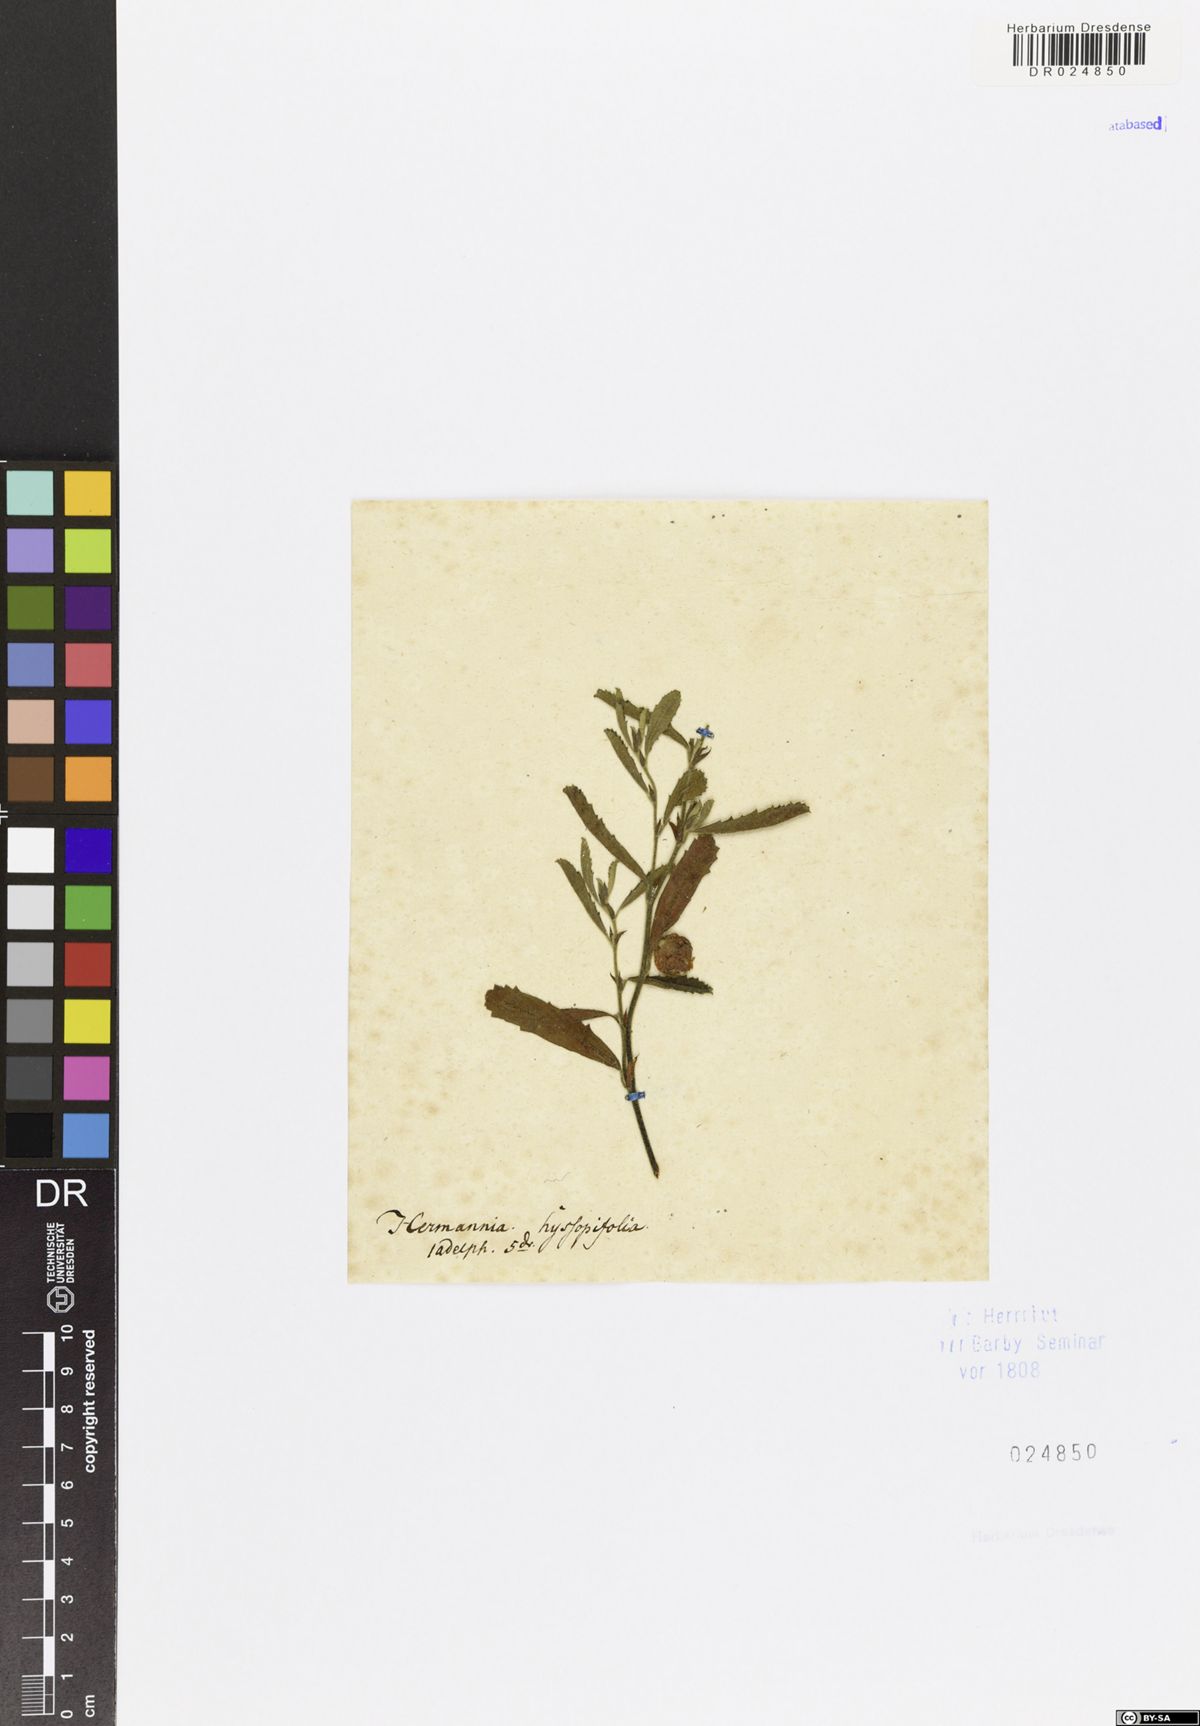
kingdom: Plantae
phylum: Tracheophyta
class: Magnoliopsida
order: Malvales
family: Malvaceae
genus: Hermannia
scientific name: Hermannia hyssopifolia
